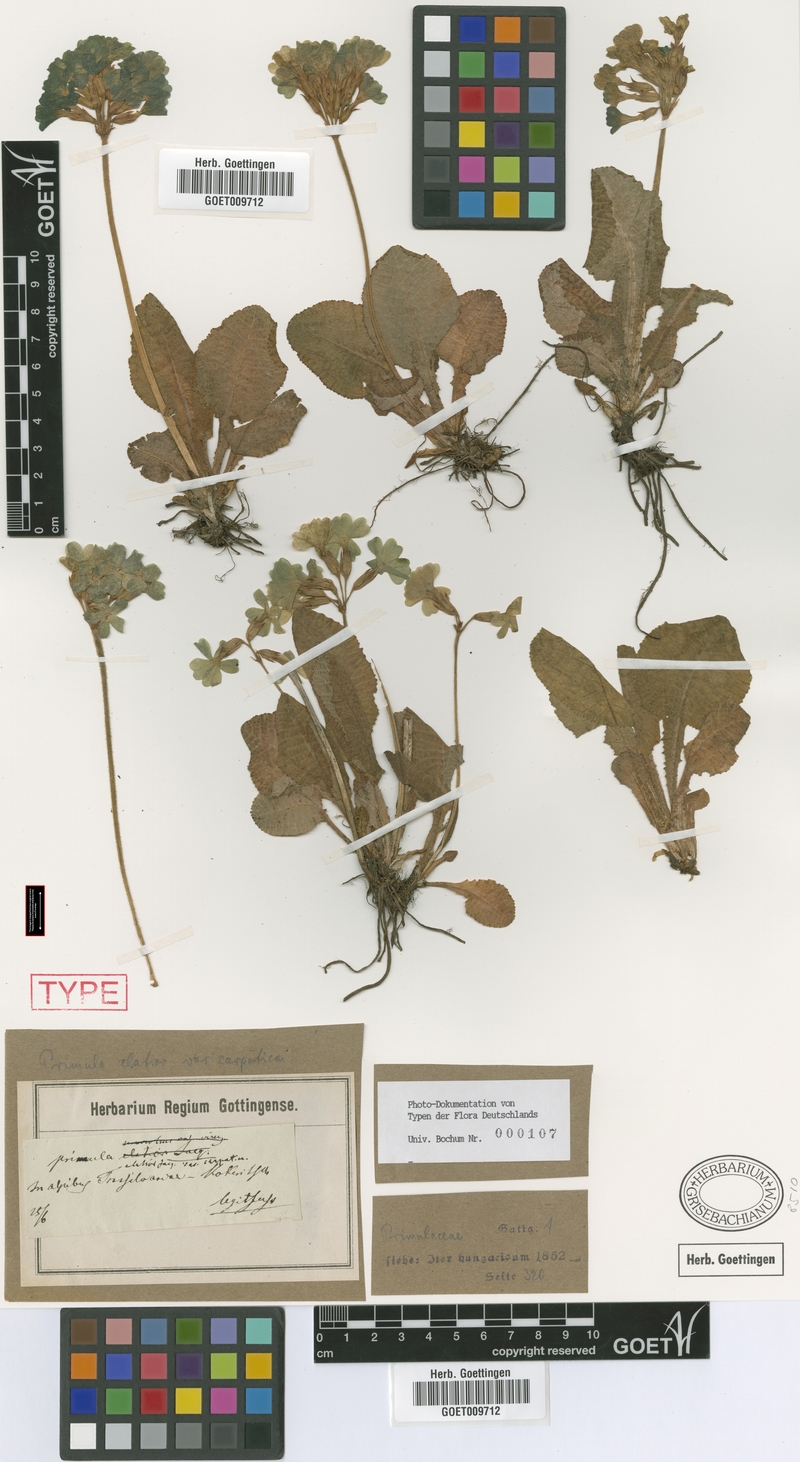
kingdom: Plantae
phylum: Tracheophyta
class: Magnoliopsida
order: Ericales
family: Primulaceae
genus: Primula
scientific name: Primula elatior
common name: Oxlip
